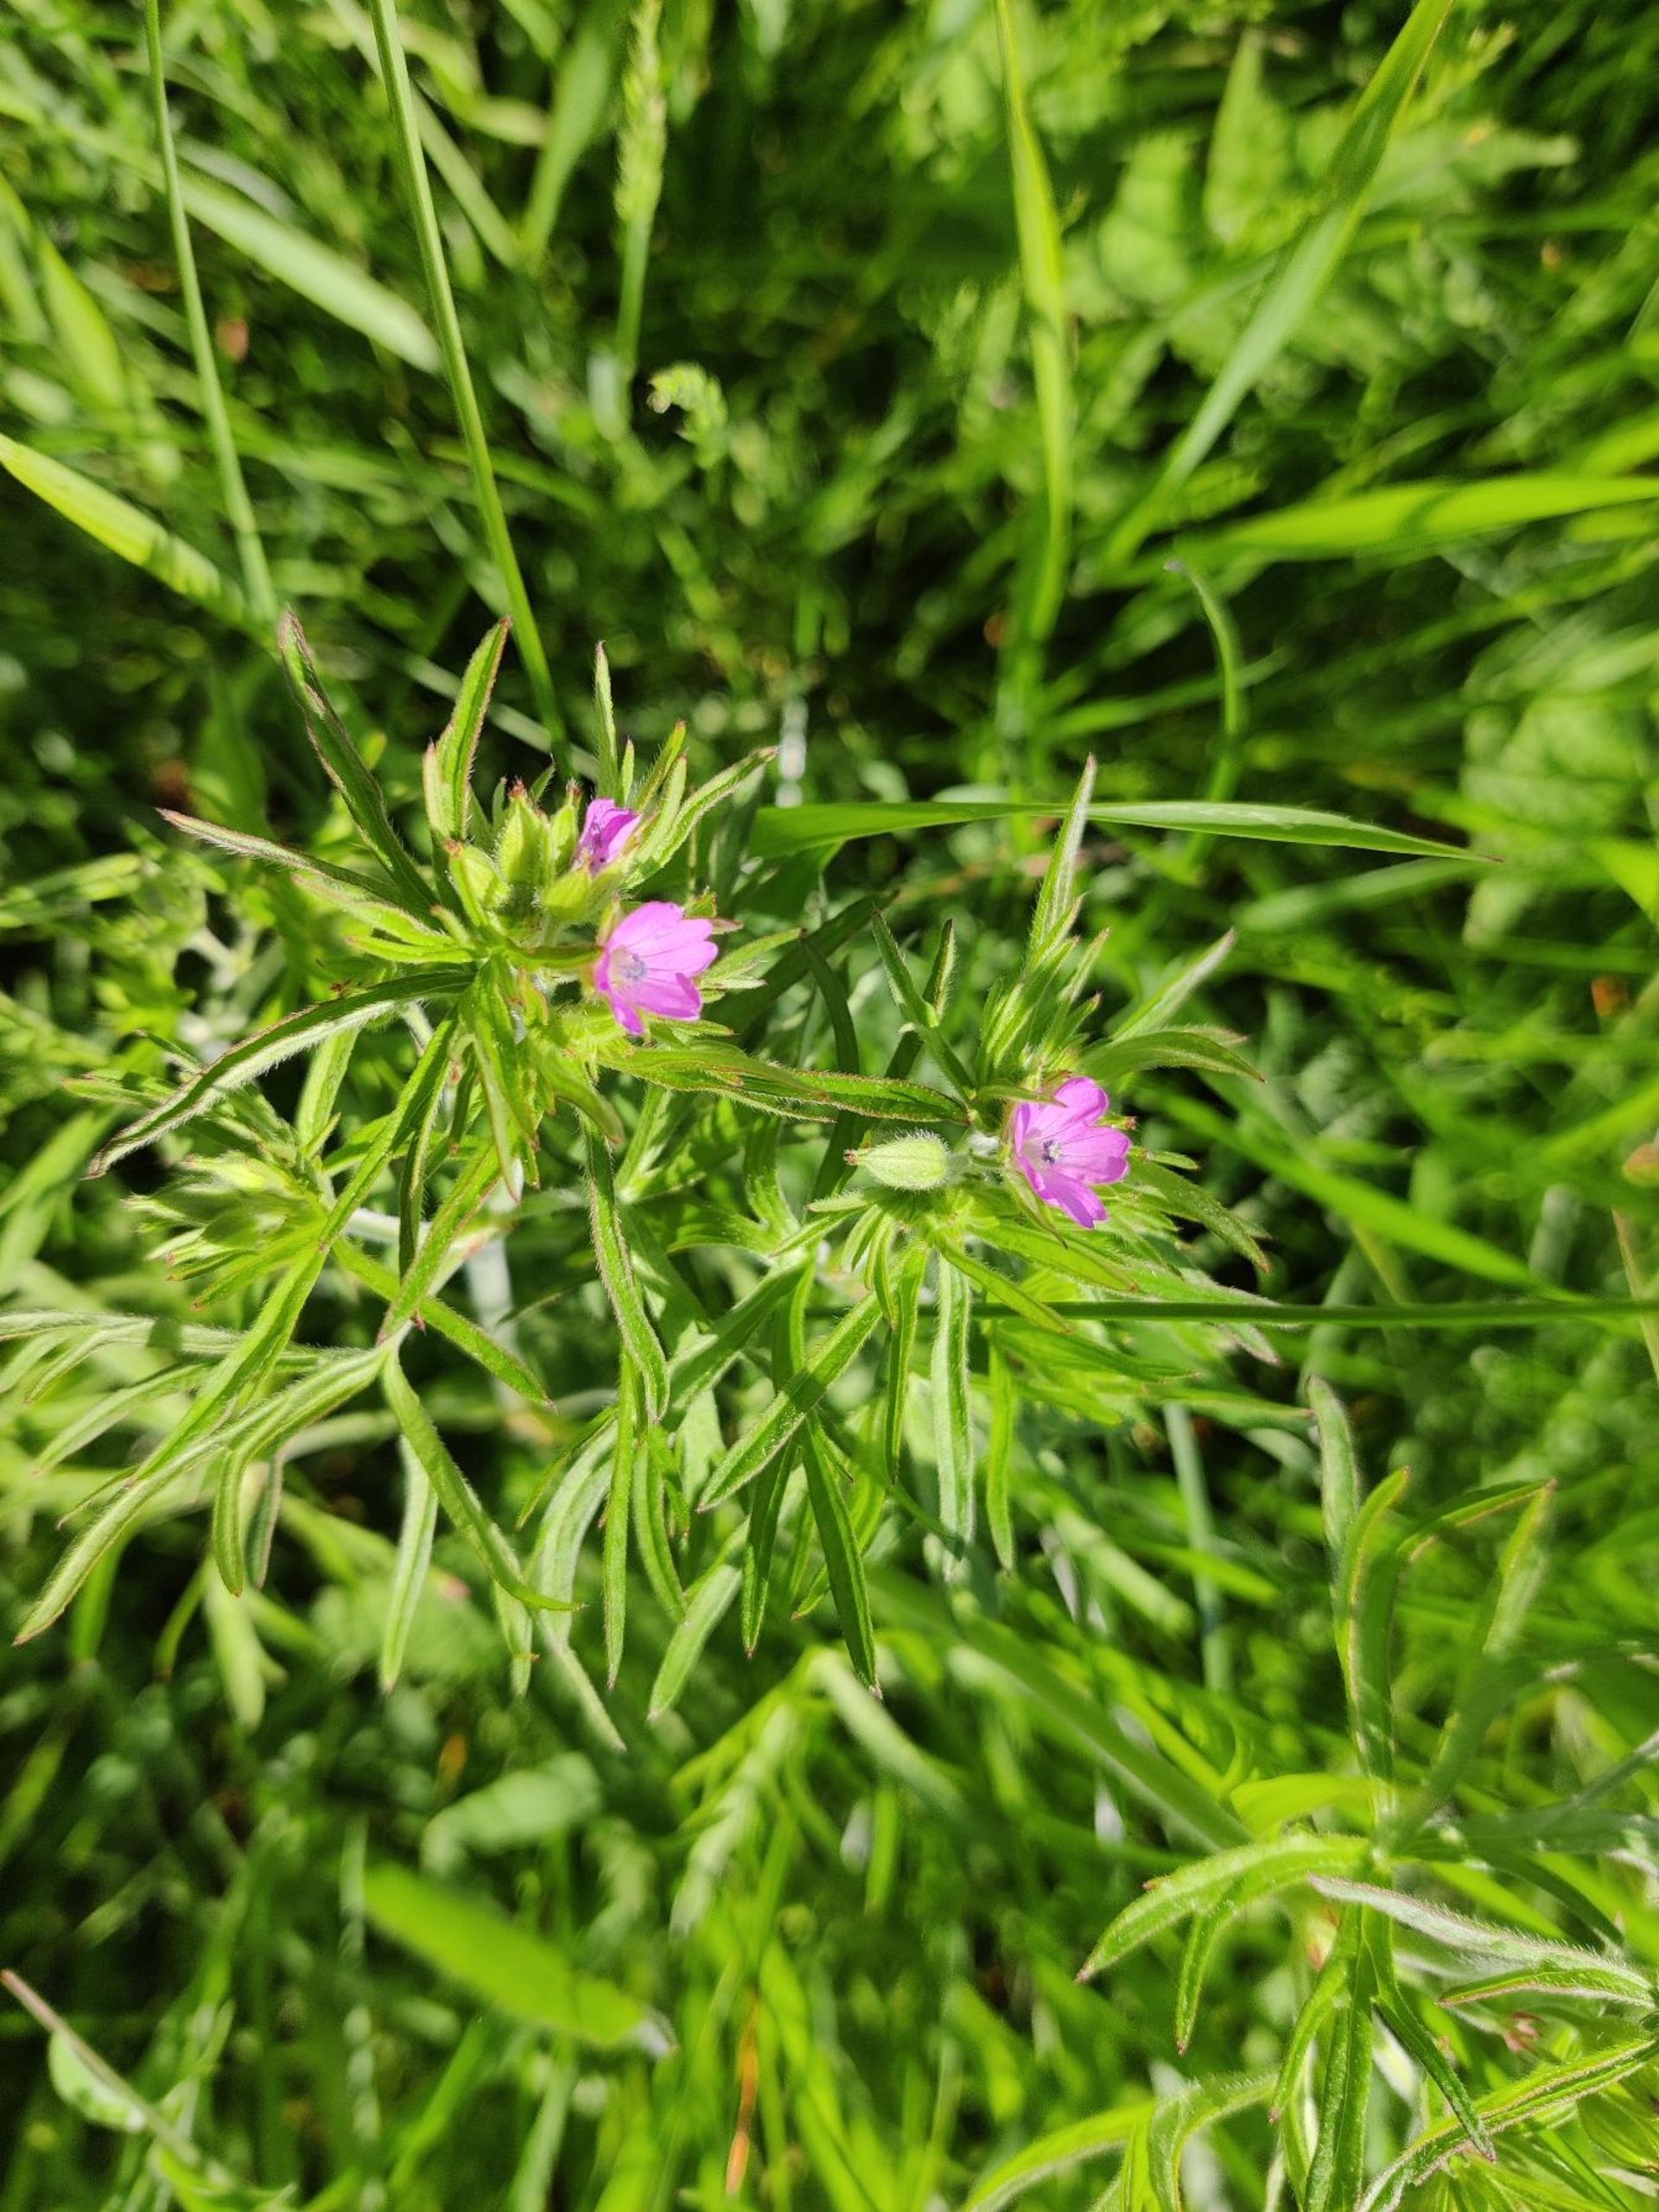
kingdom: Plantae
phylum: Tracheophyta
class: Magnoliopsida
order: Geraniales
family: Geraniaceae
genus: Geranium
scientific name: Geranium dissectum
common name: Kløftet storkenæb
